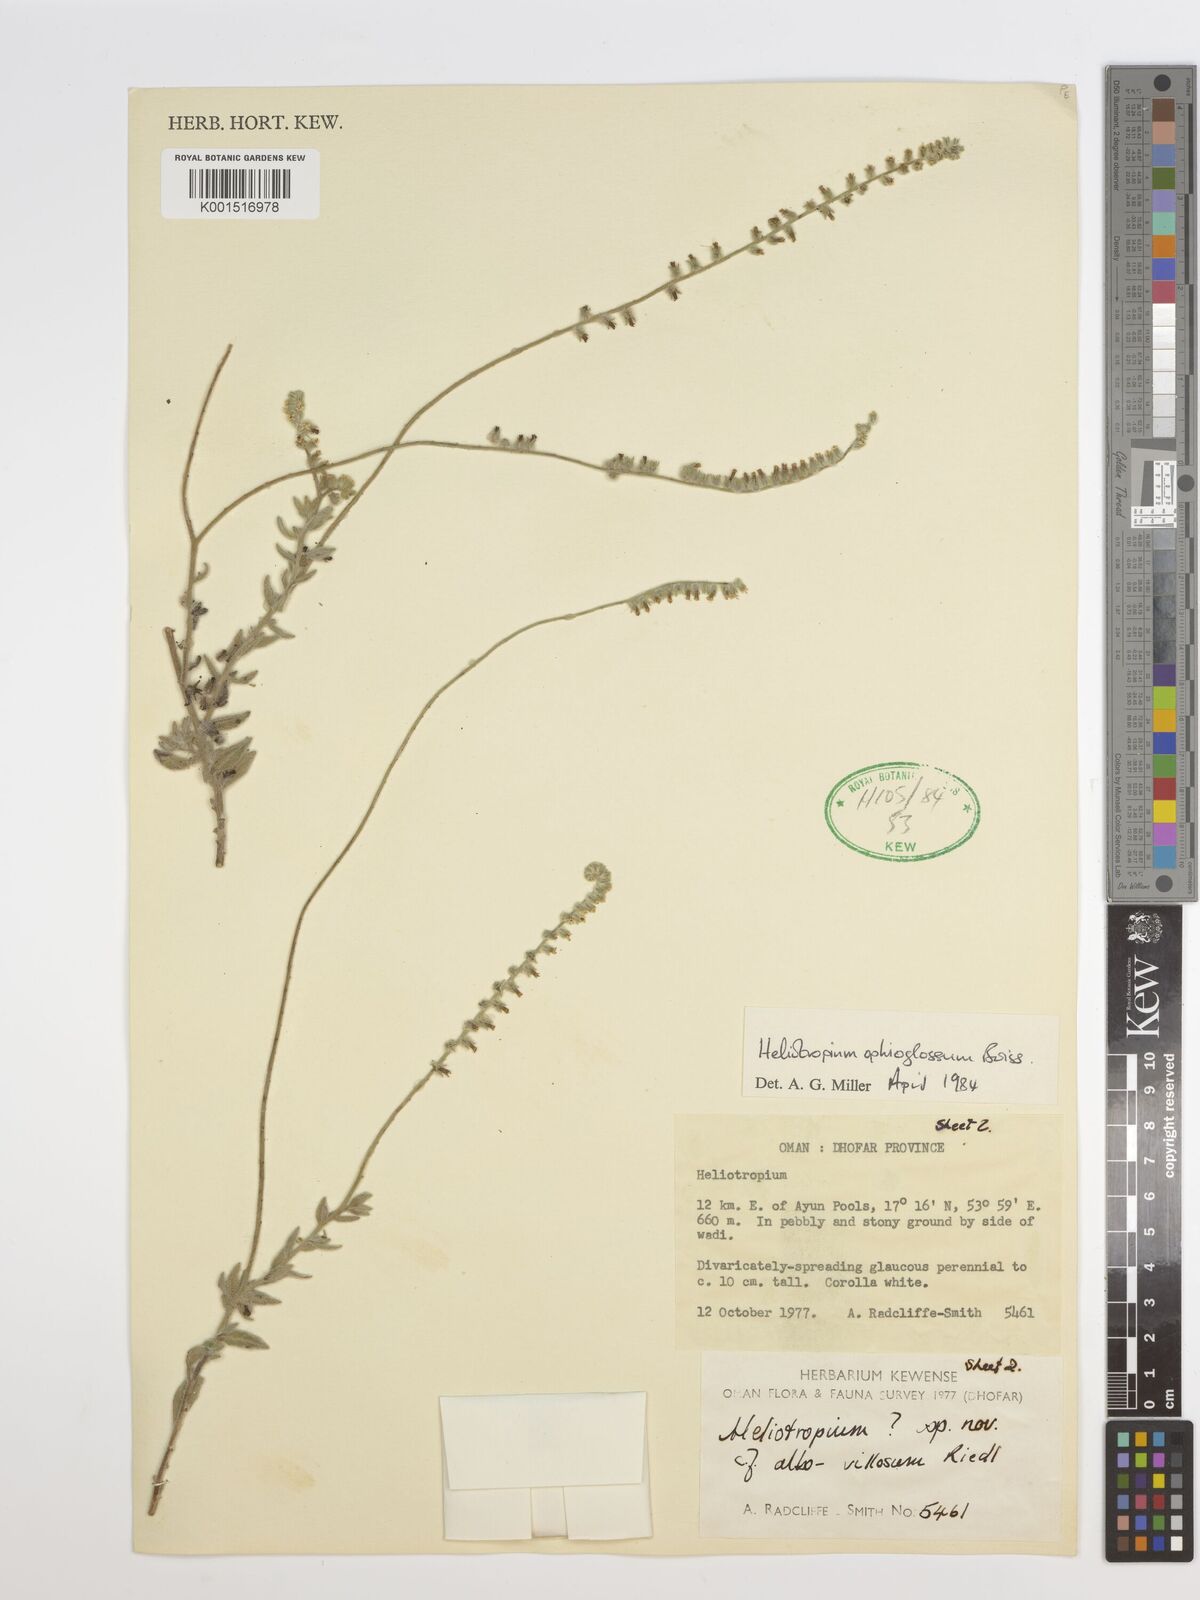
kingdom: Plantae
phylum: Tracheophyta
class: Magnoliopsida
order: Boraginales
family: Heliotropiaceae
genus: Heliotropium
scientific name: Heliotropium ophioglossum
